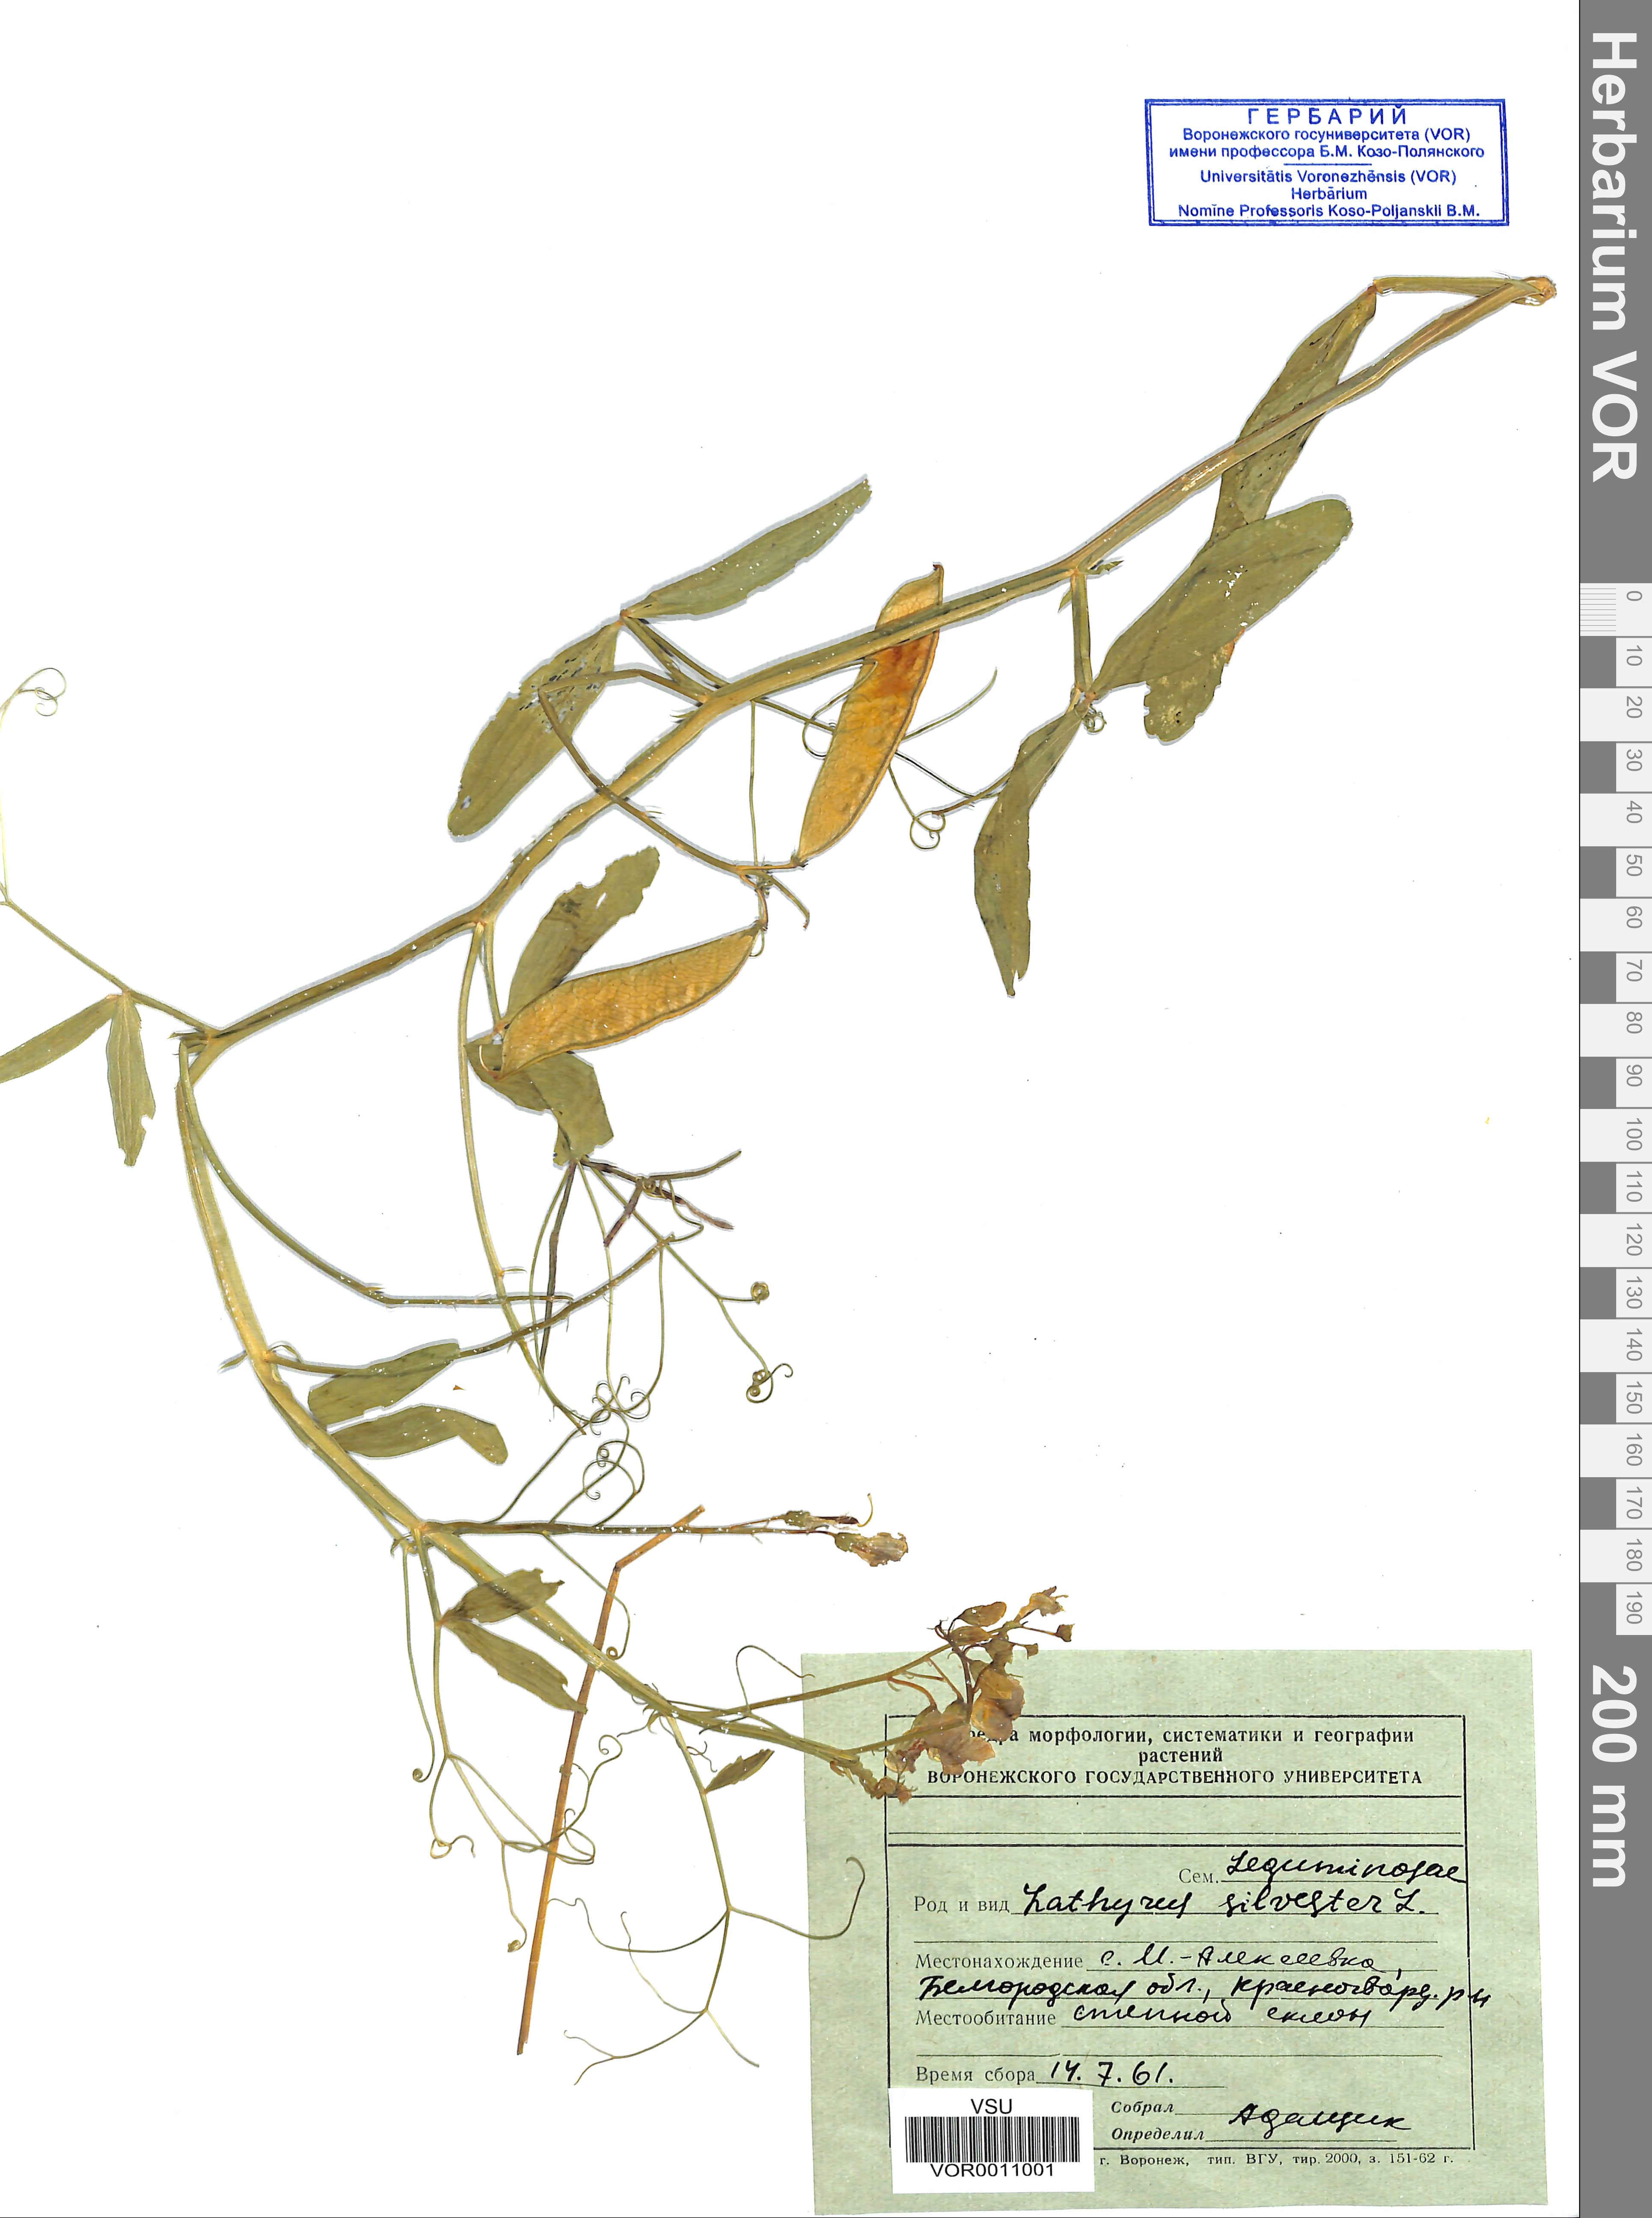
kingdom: Plantae
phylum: Tracheophyta
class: Magnoliopsida
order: Fabales
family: Fabaceae
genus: Lathyrus
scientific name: Lathyrus sylvestris
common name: Flat pea
